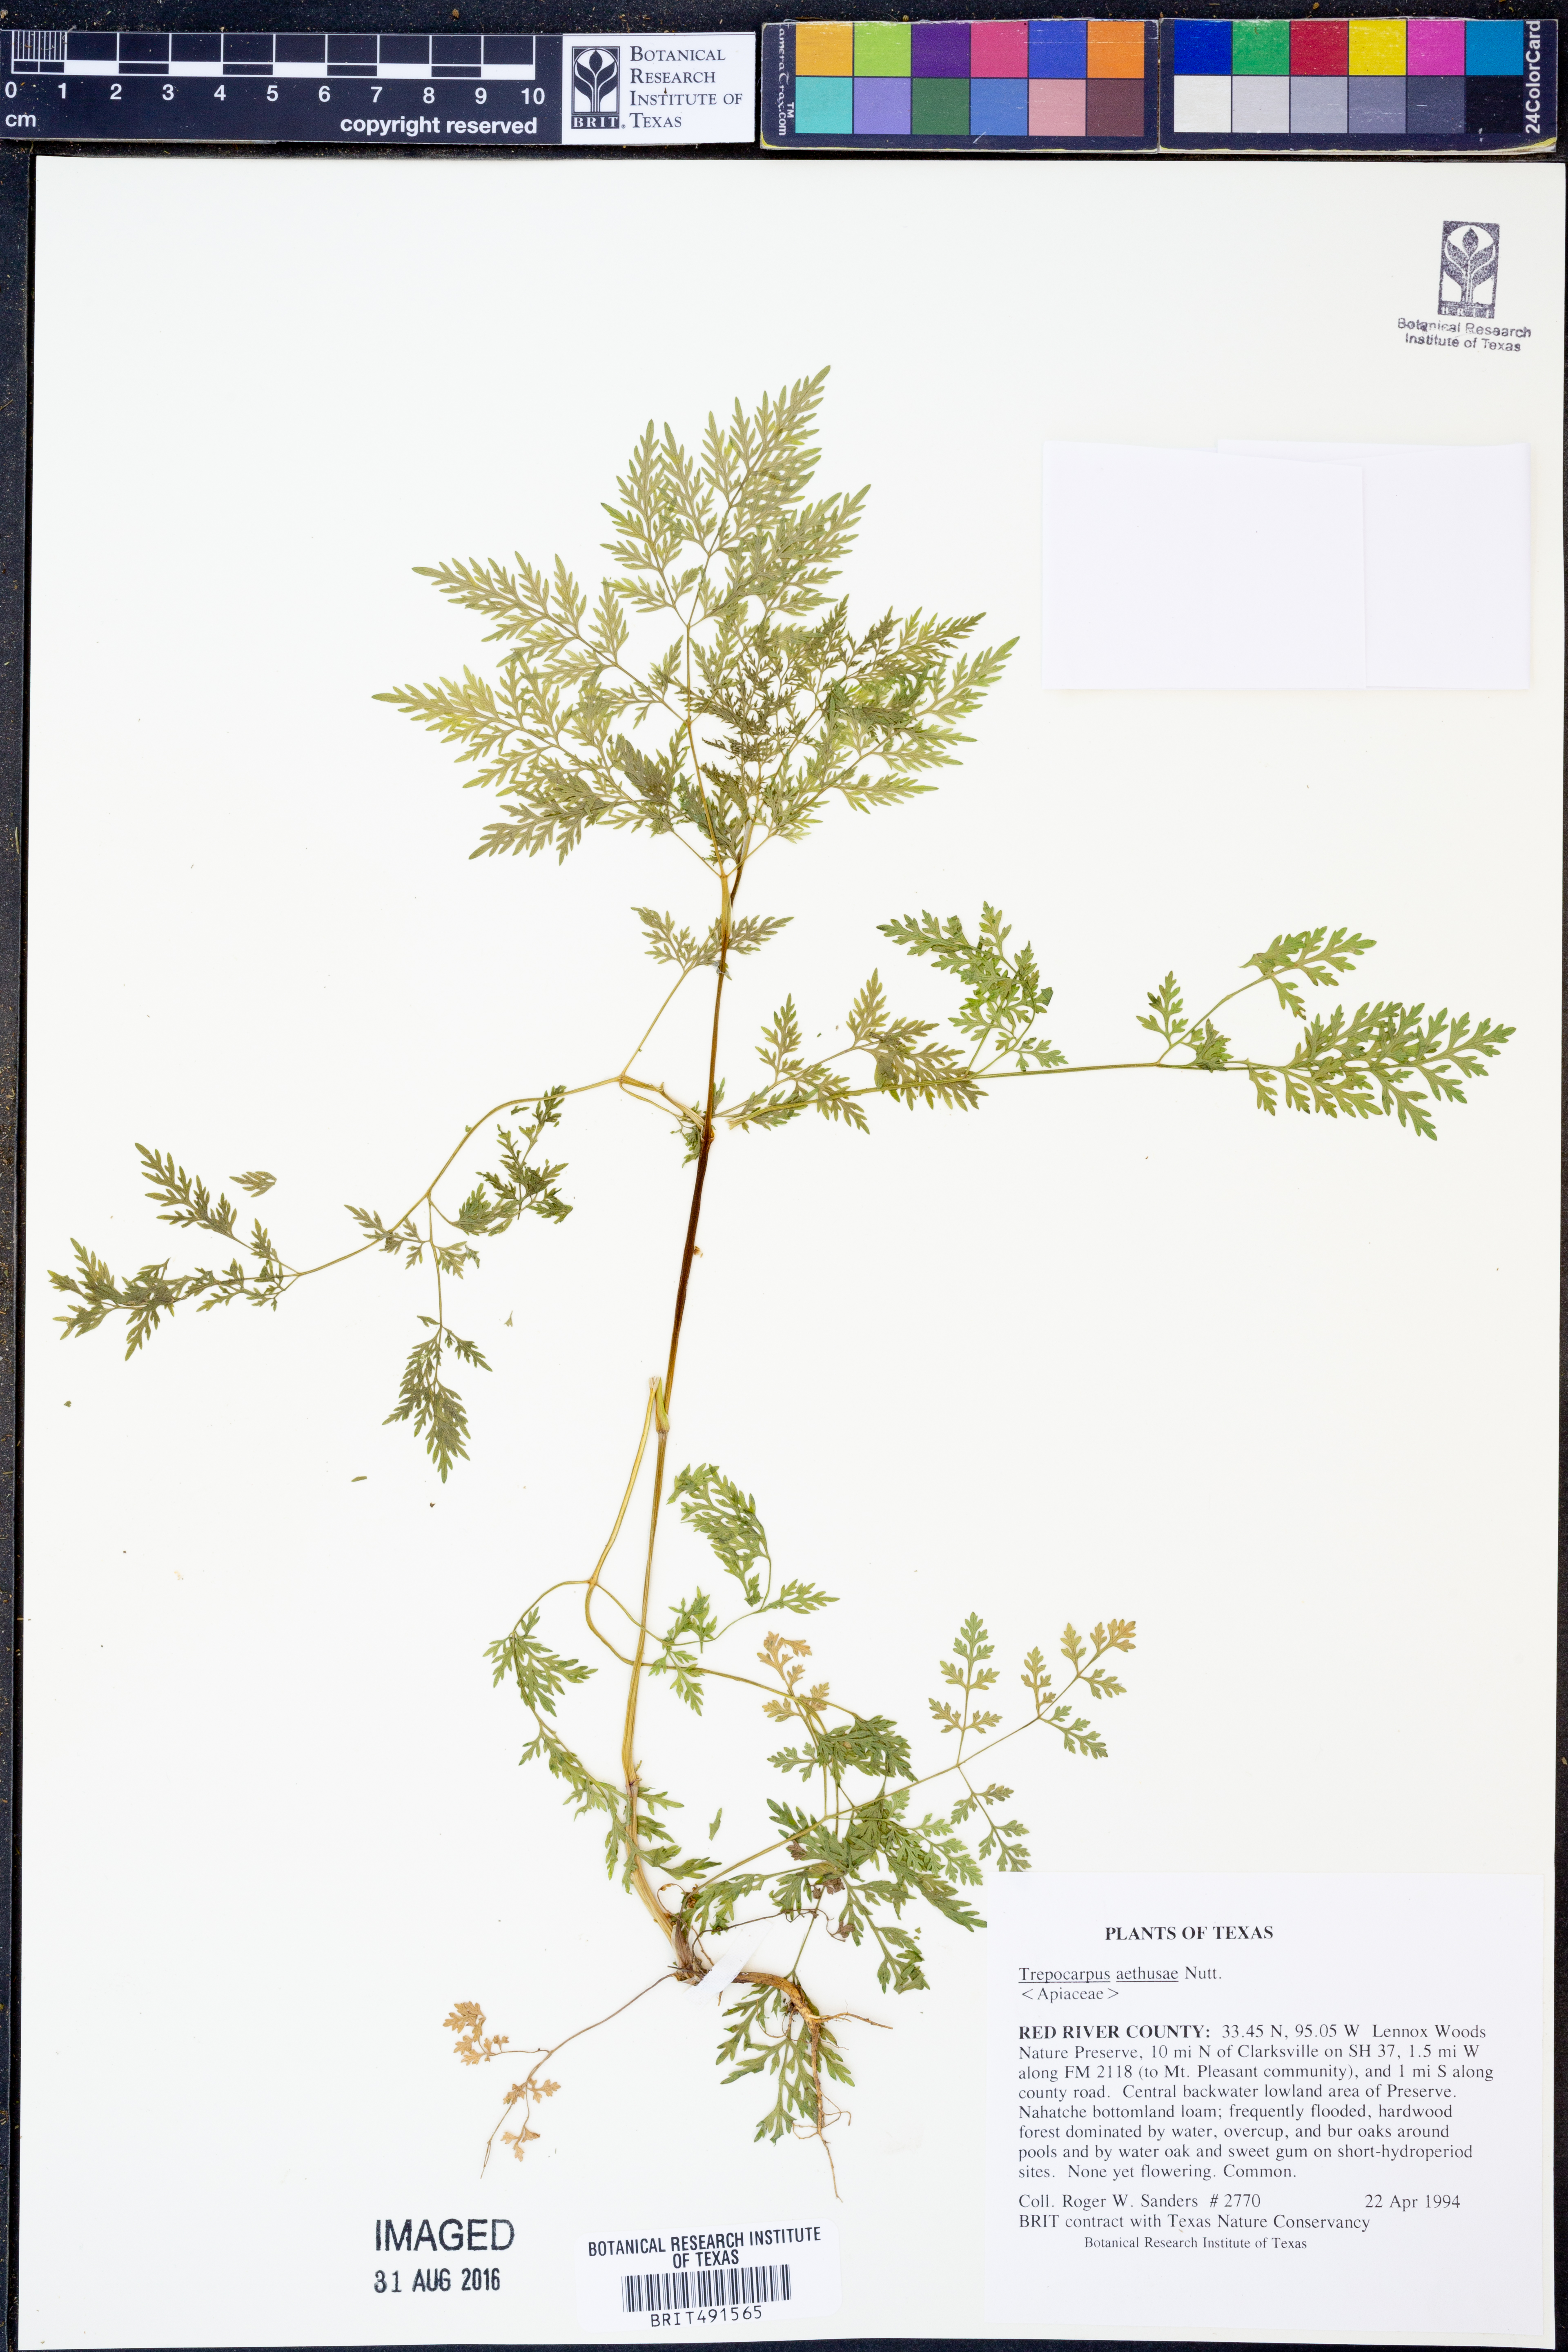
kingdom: Plantae
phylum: Tracheophyta
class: Magnoliopsida
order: Apiales
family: Apiaceae
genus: Trepocarpus
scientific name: Trepocarpus aethusae
